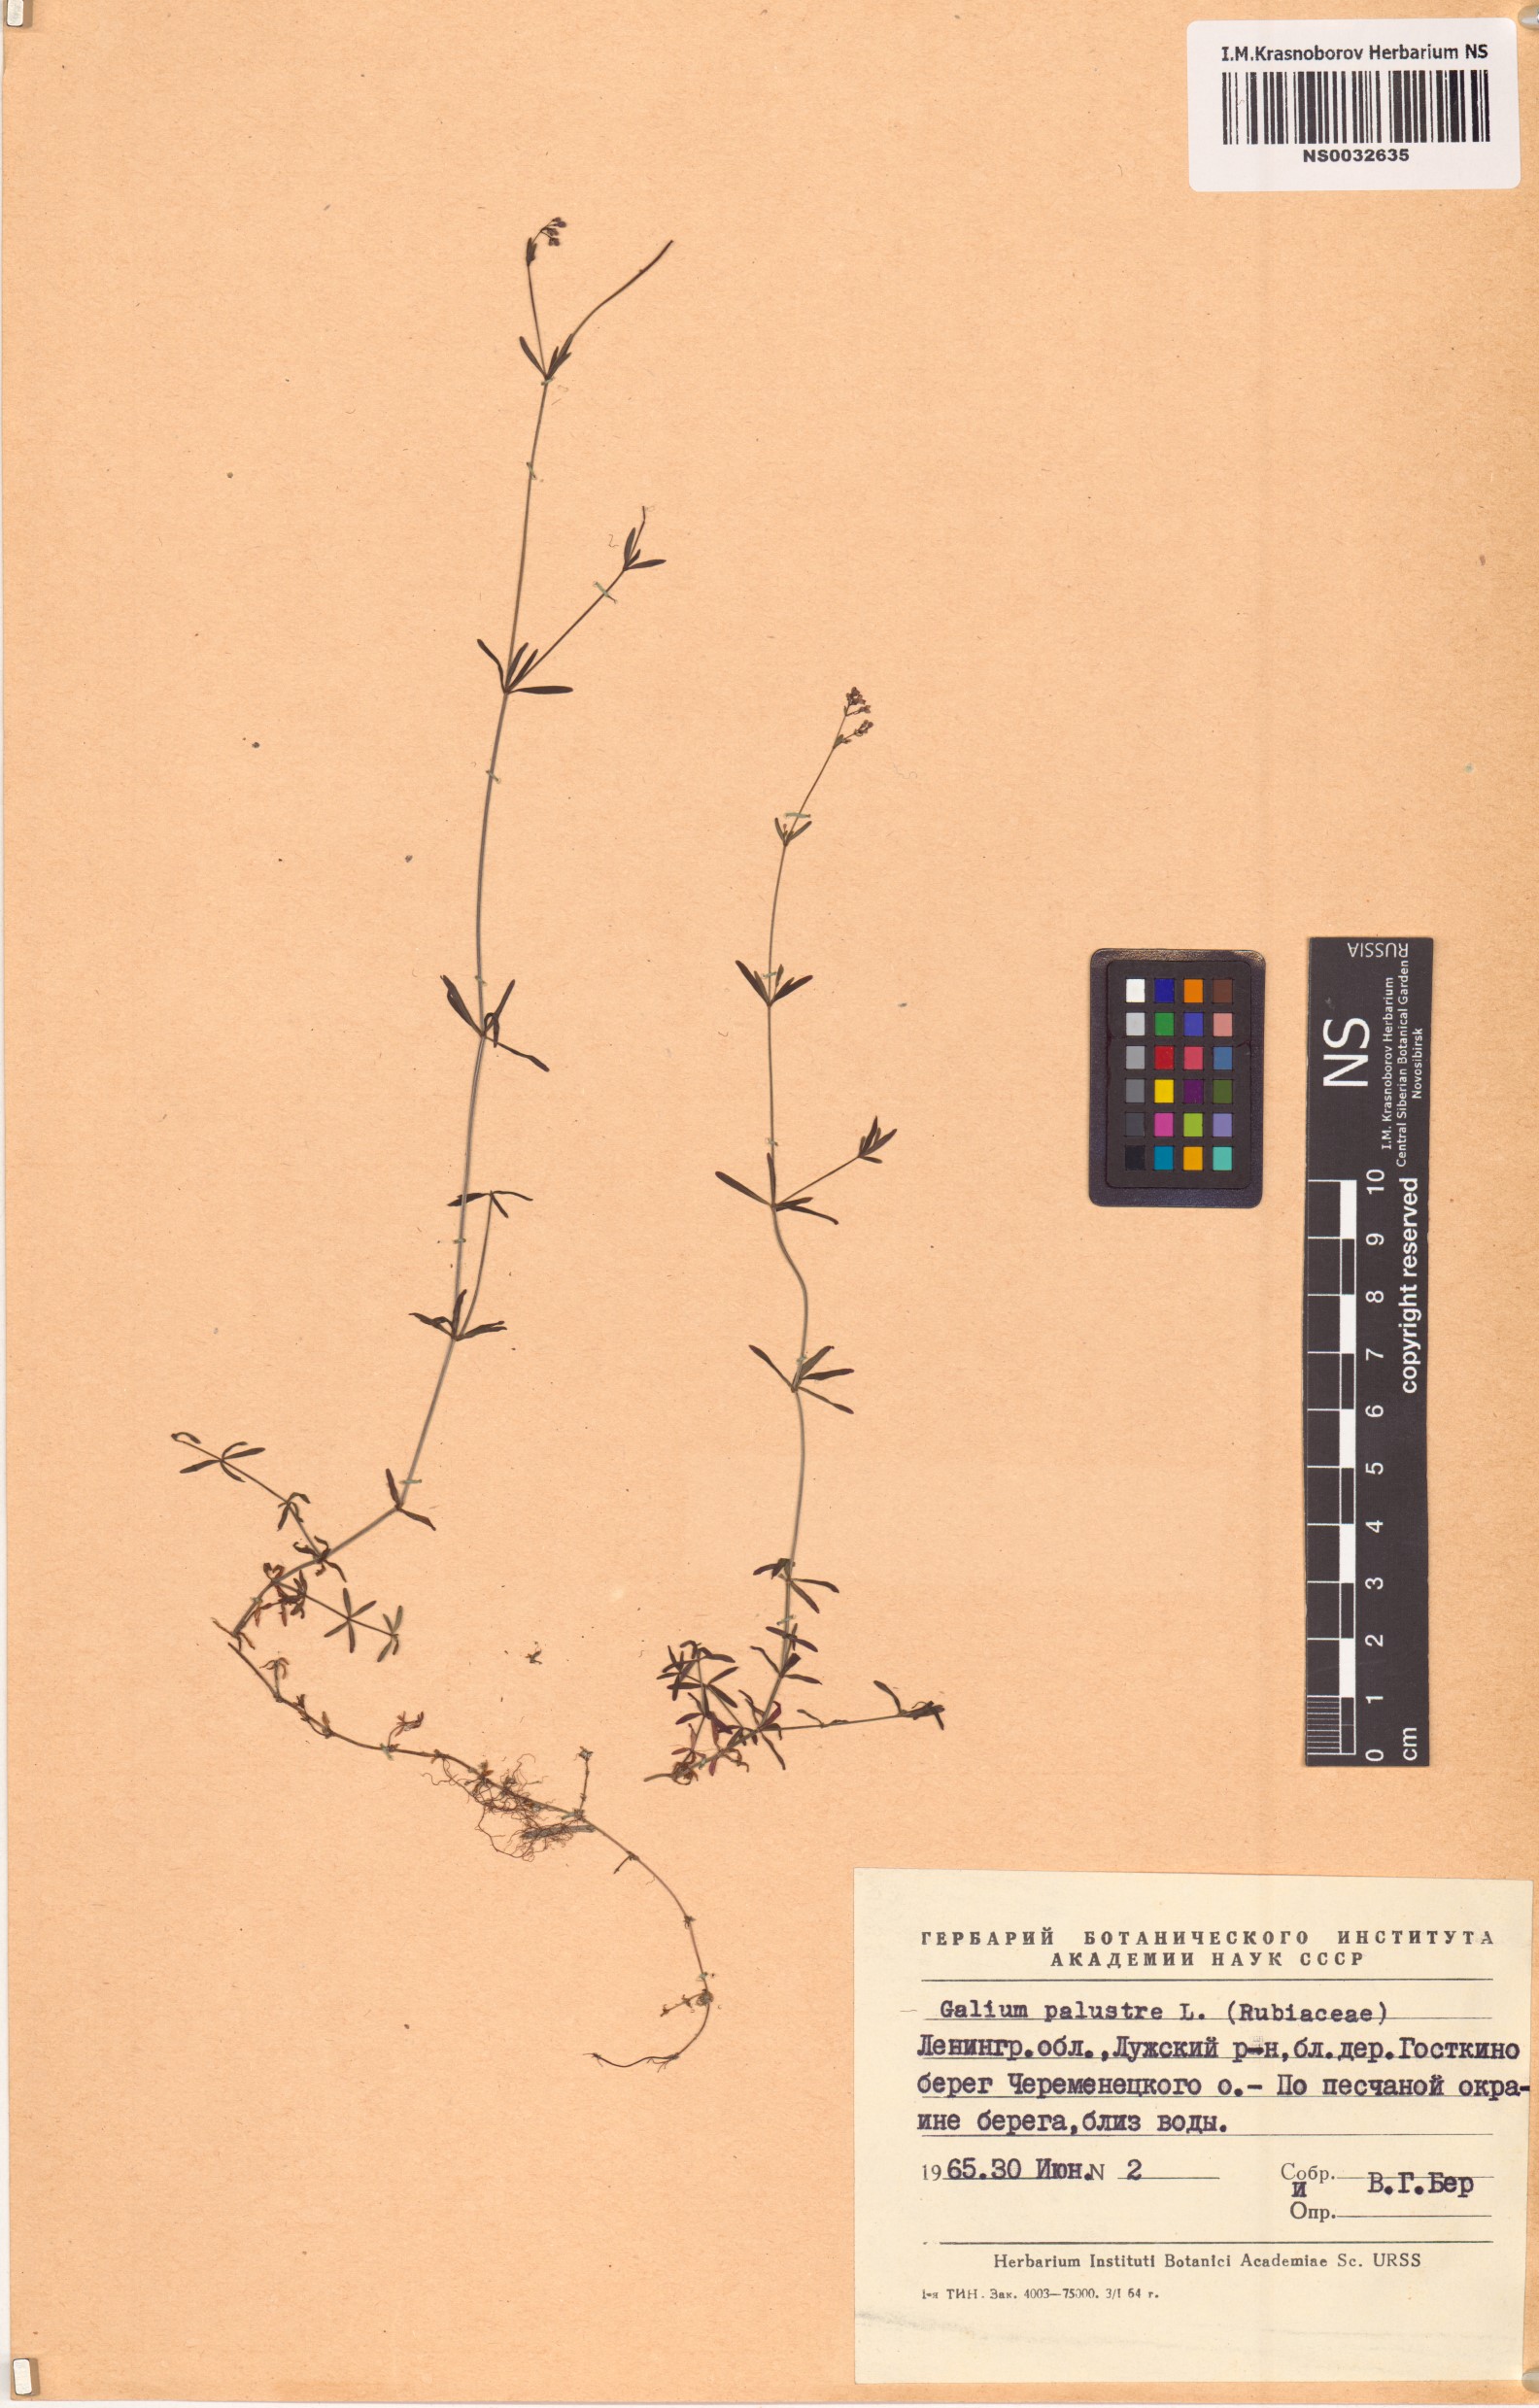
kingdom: Plantae
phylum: Tracheophyta
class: Magnoliopsida
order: Gentianales
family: Rubiaceae
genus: Galium
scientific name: Galium palustre
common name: Common marsh-bedstraw
